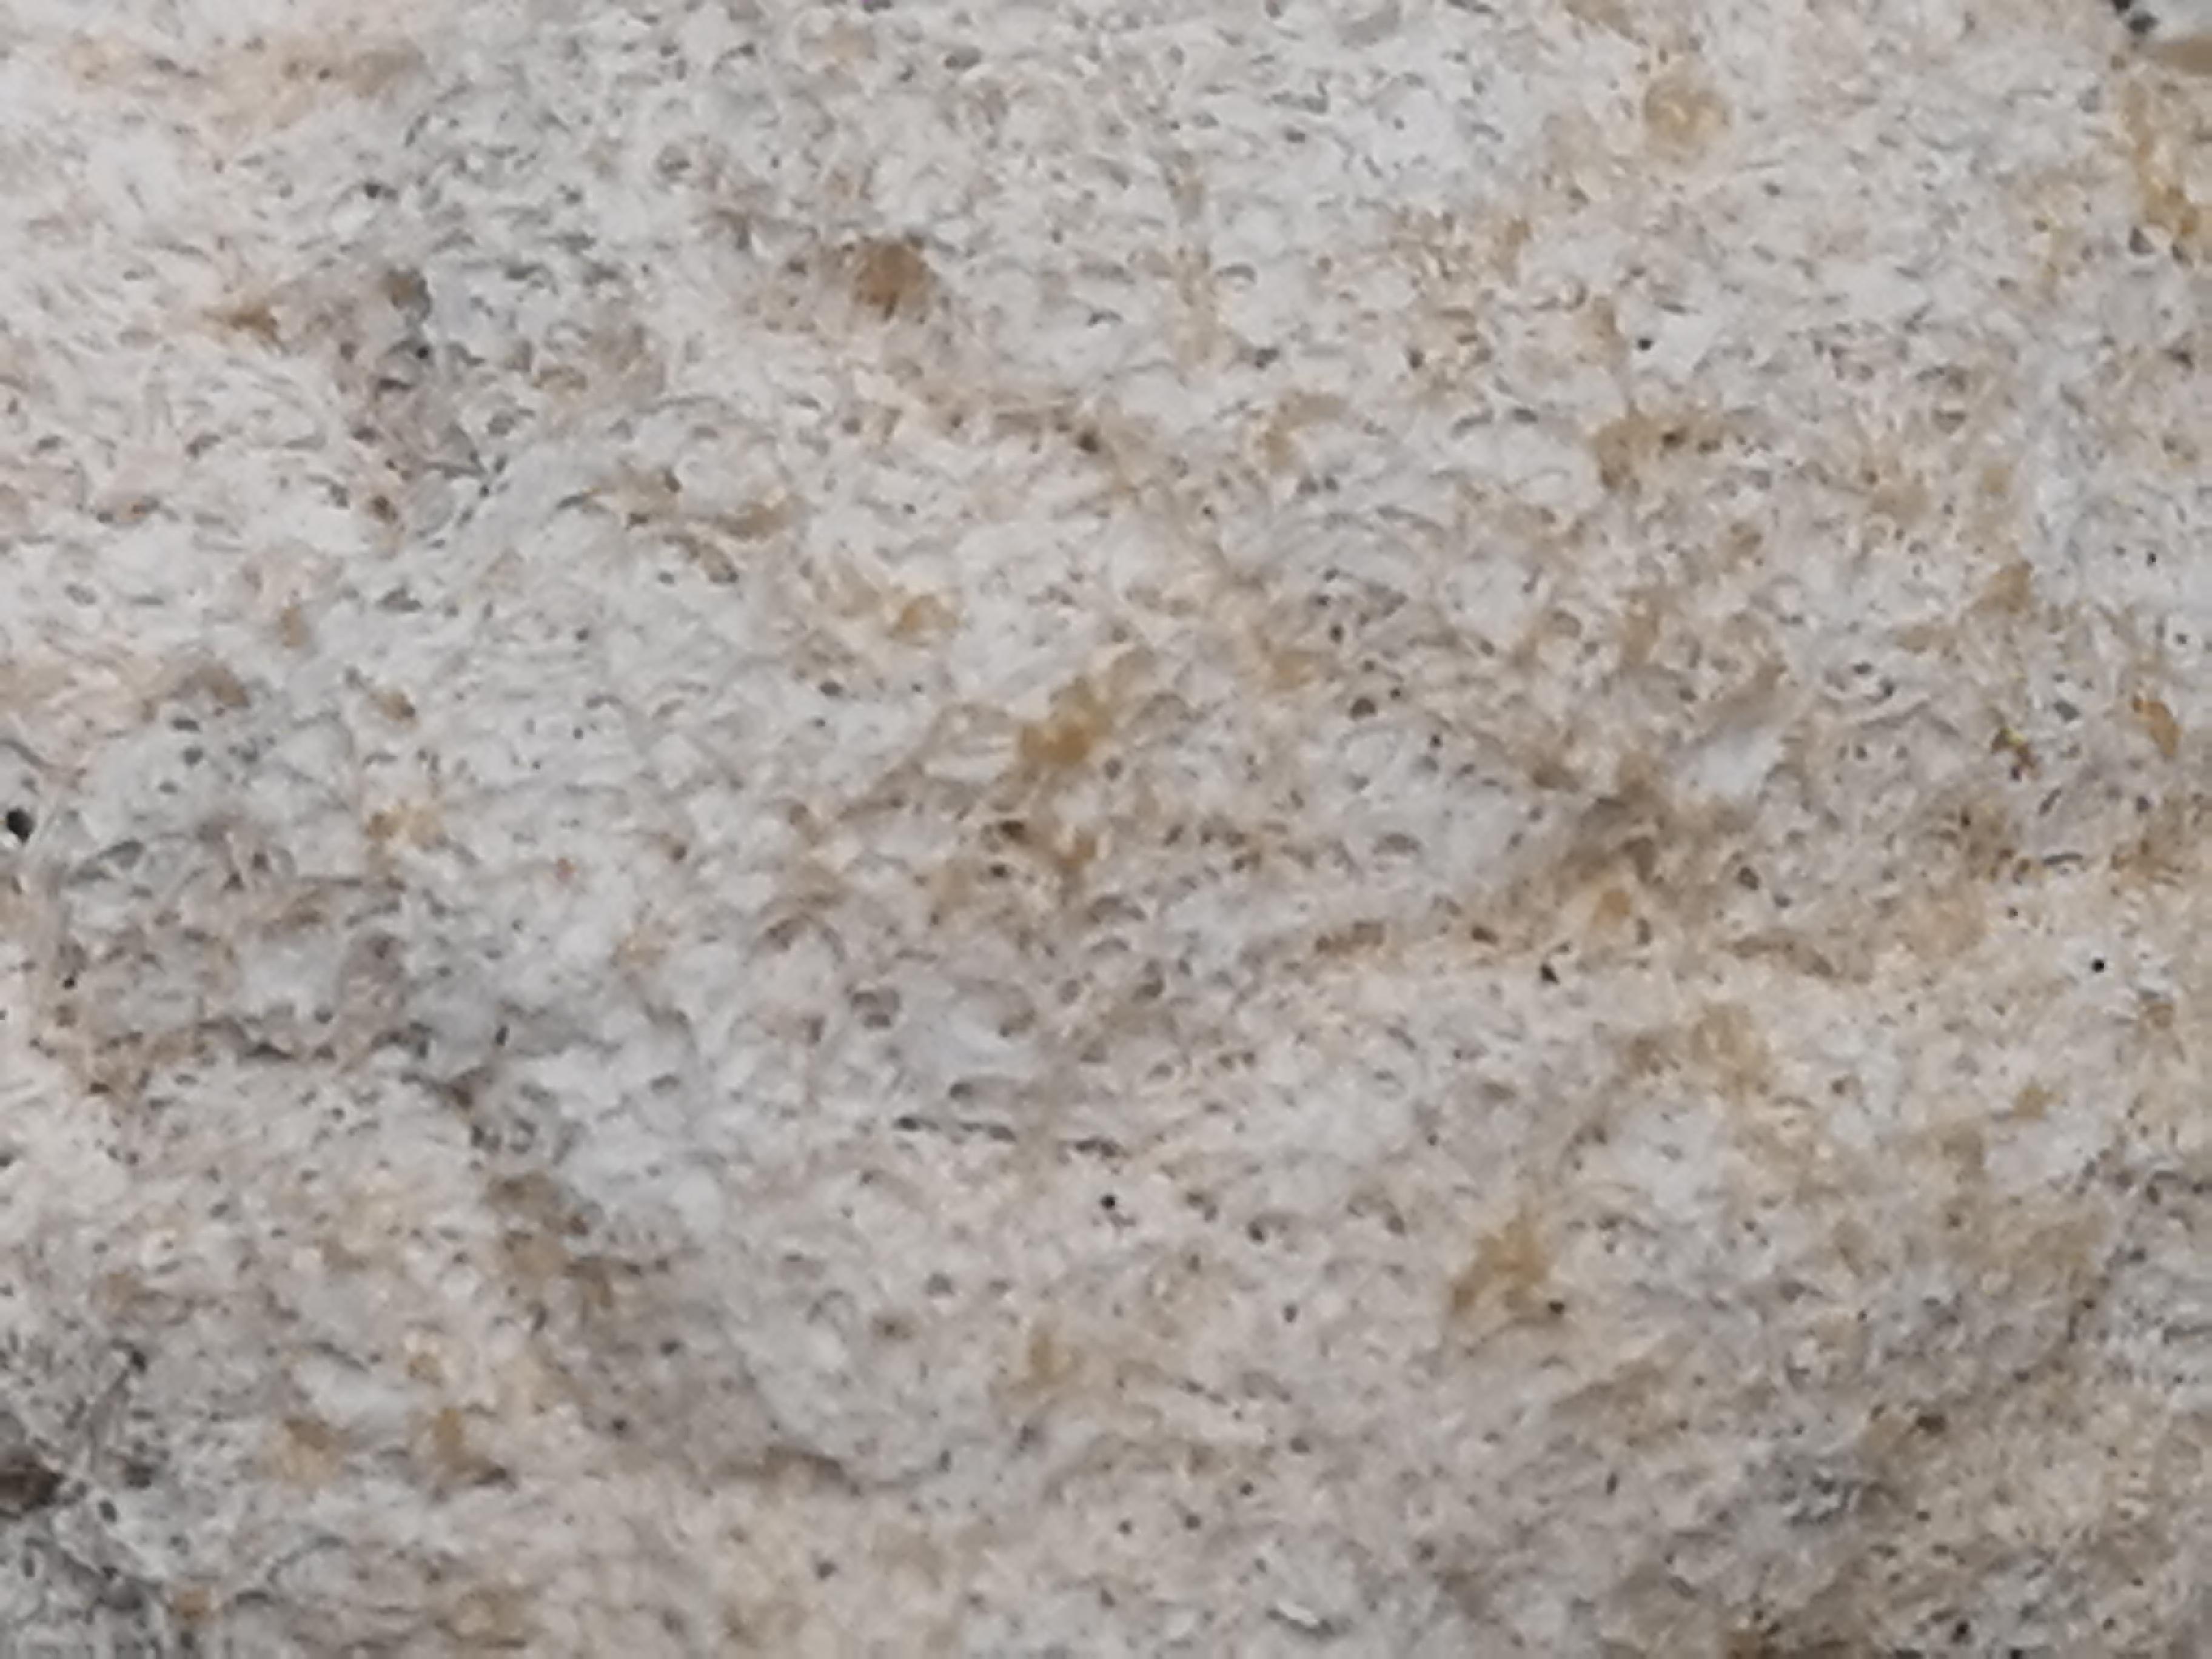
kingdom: Protozoa
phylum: Mycetozoa
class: Myxomycetes
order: Physarales
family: Physaraceae
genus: Fuligo
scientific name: Fuligo
